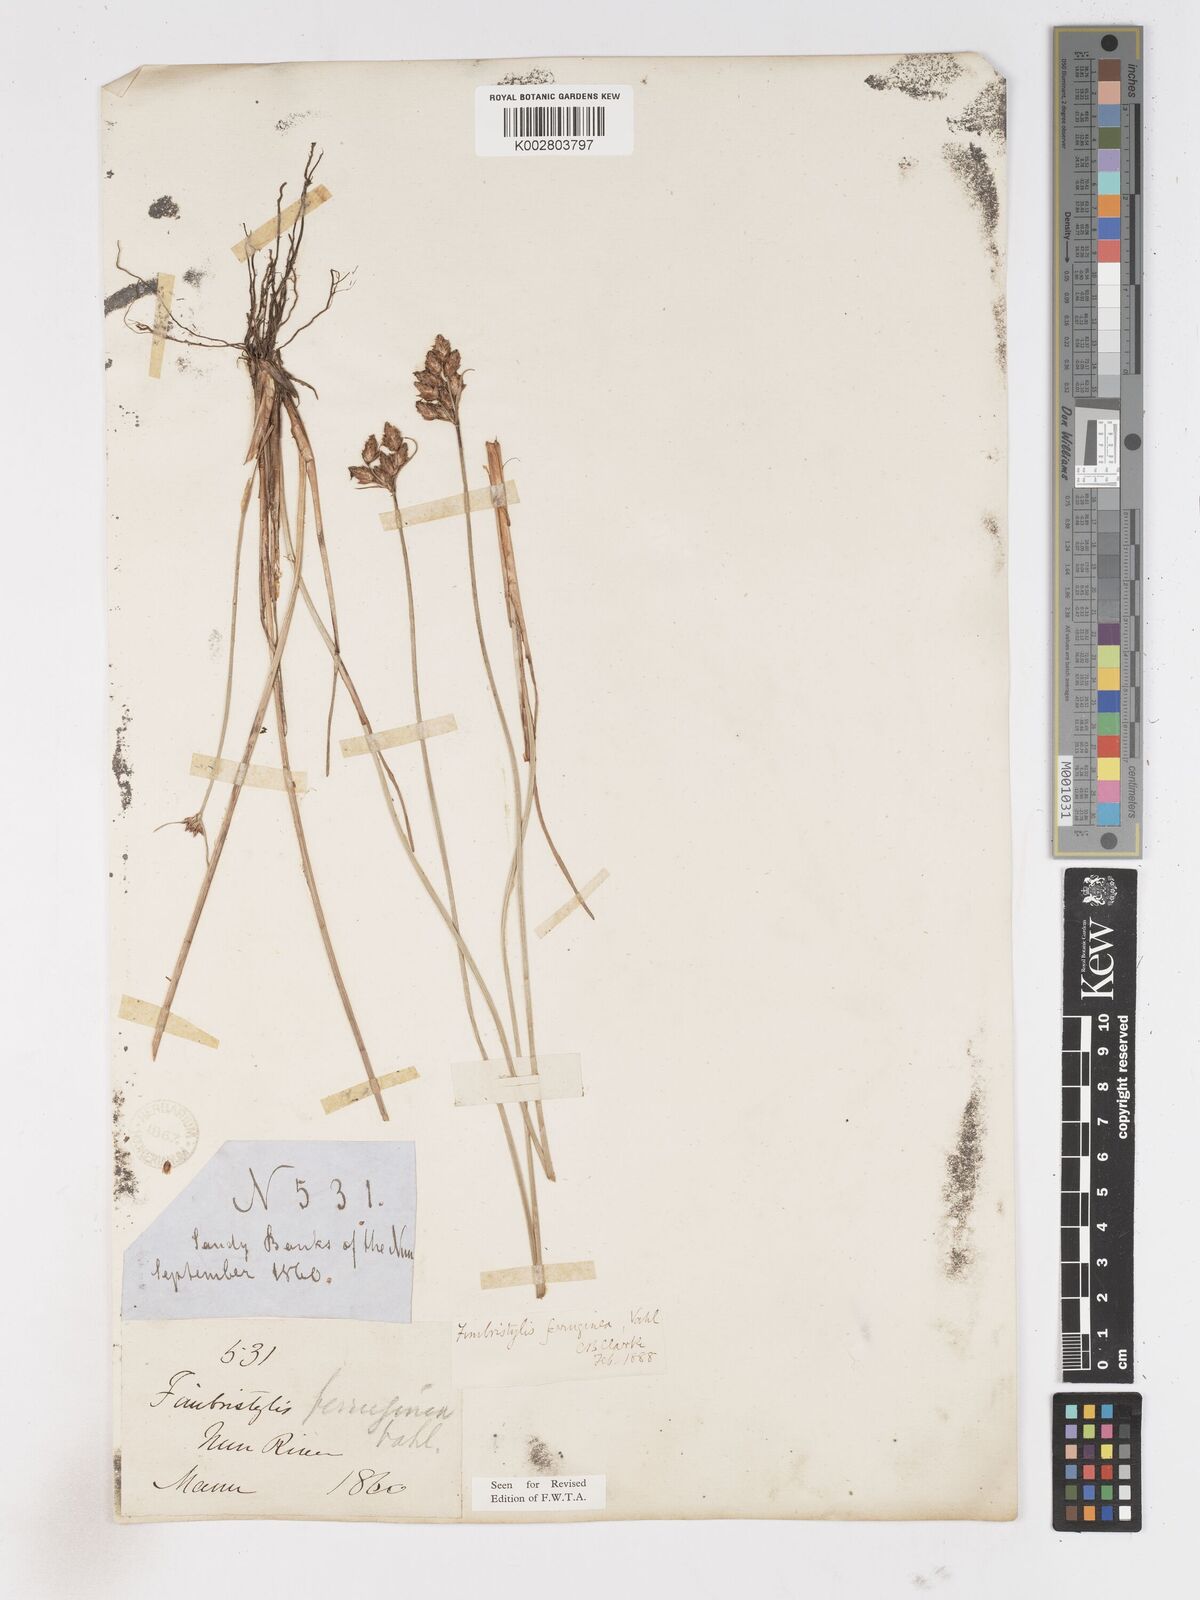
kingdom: Plantae
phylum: Tracheophyta
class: Liliopsida
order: Poales
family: Cyperaceae
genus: Fimbristylis
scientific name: Fimbristylis ferruginea
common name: West indian fimbry
